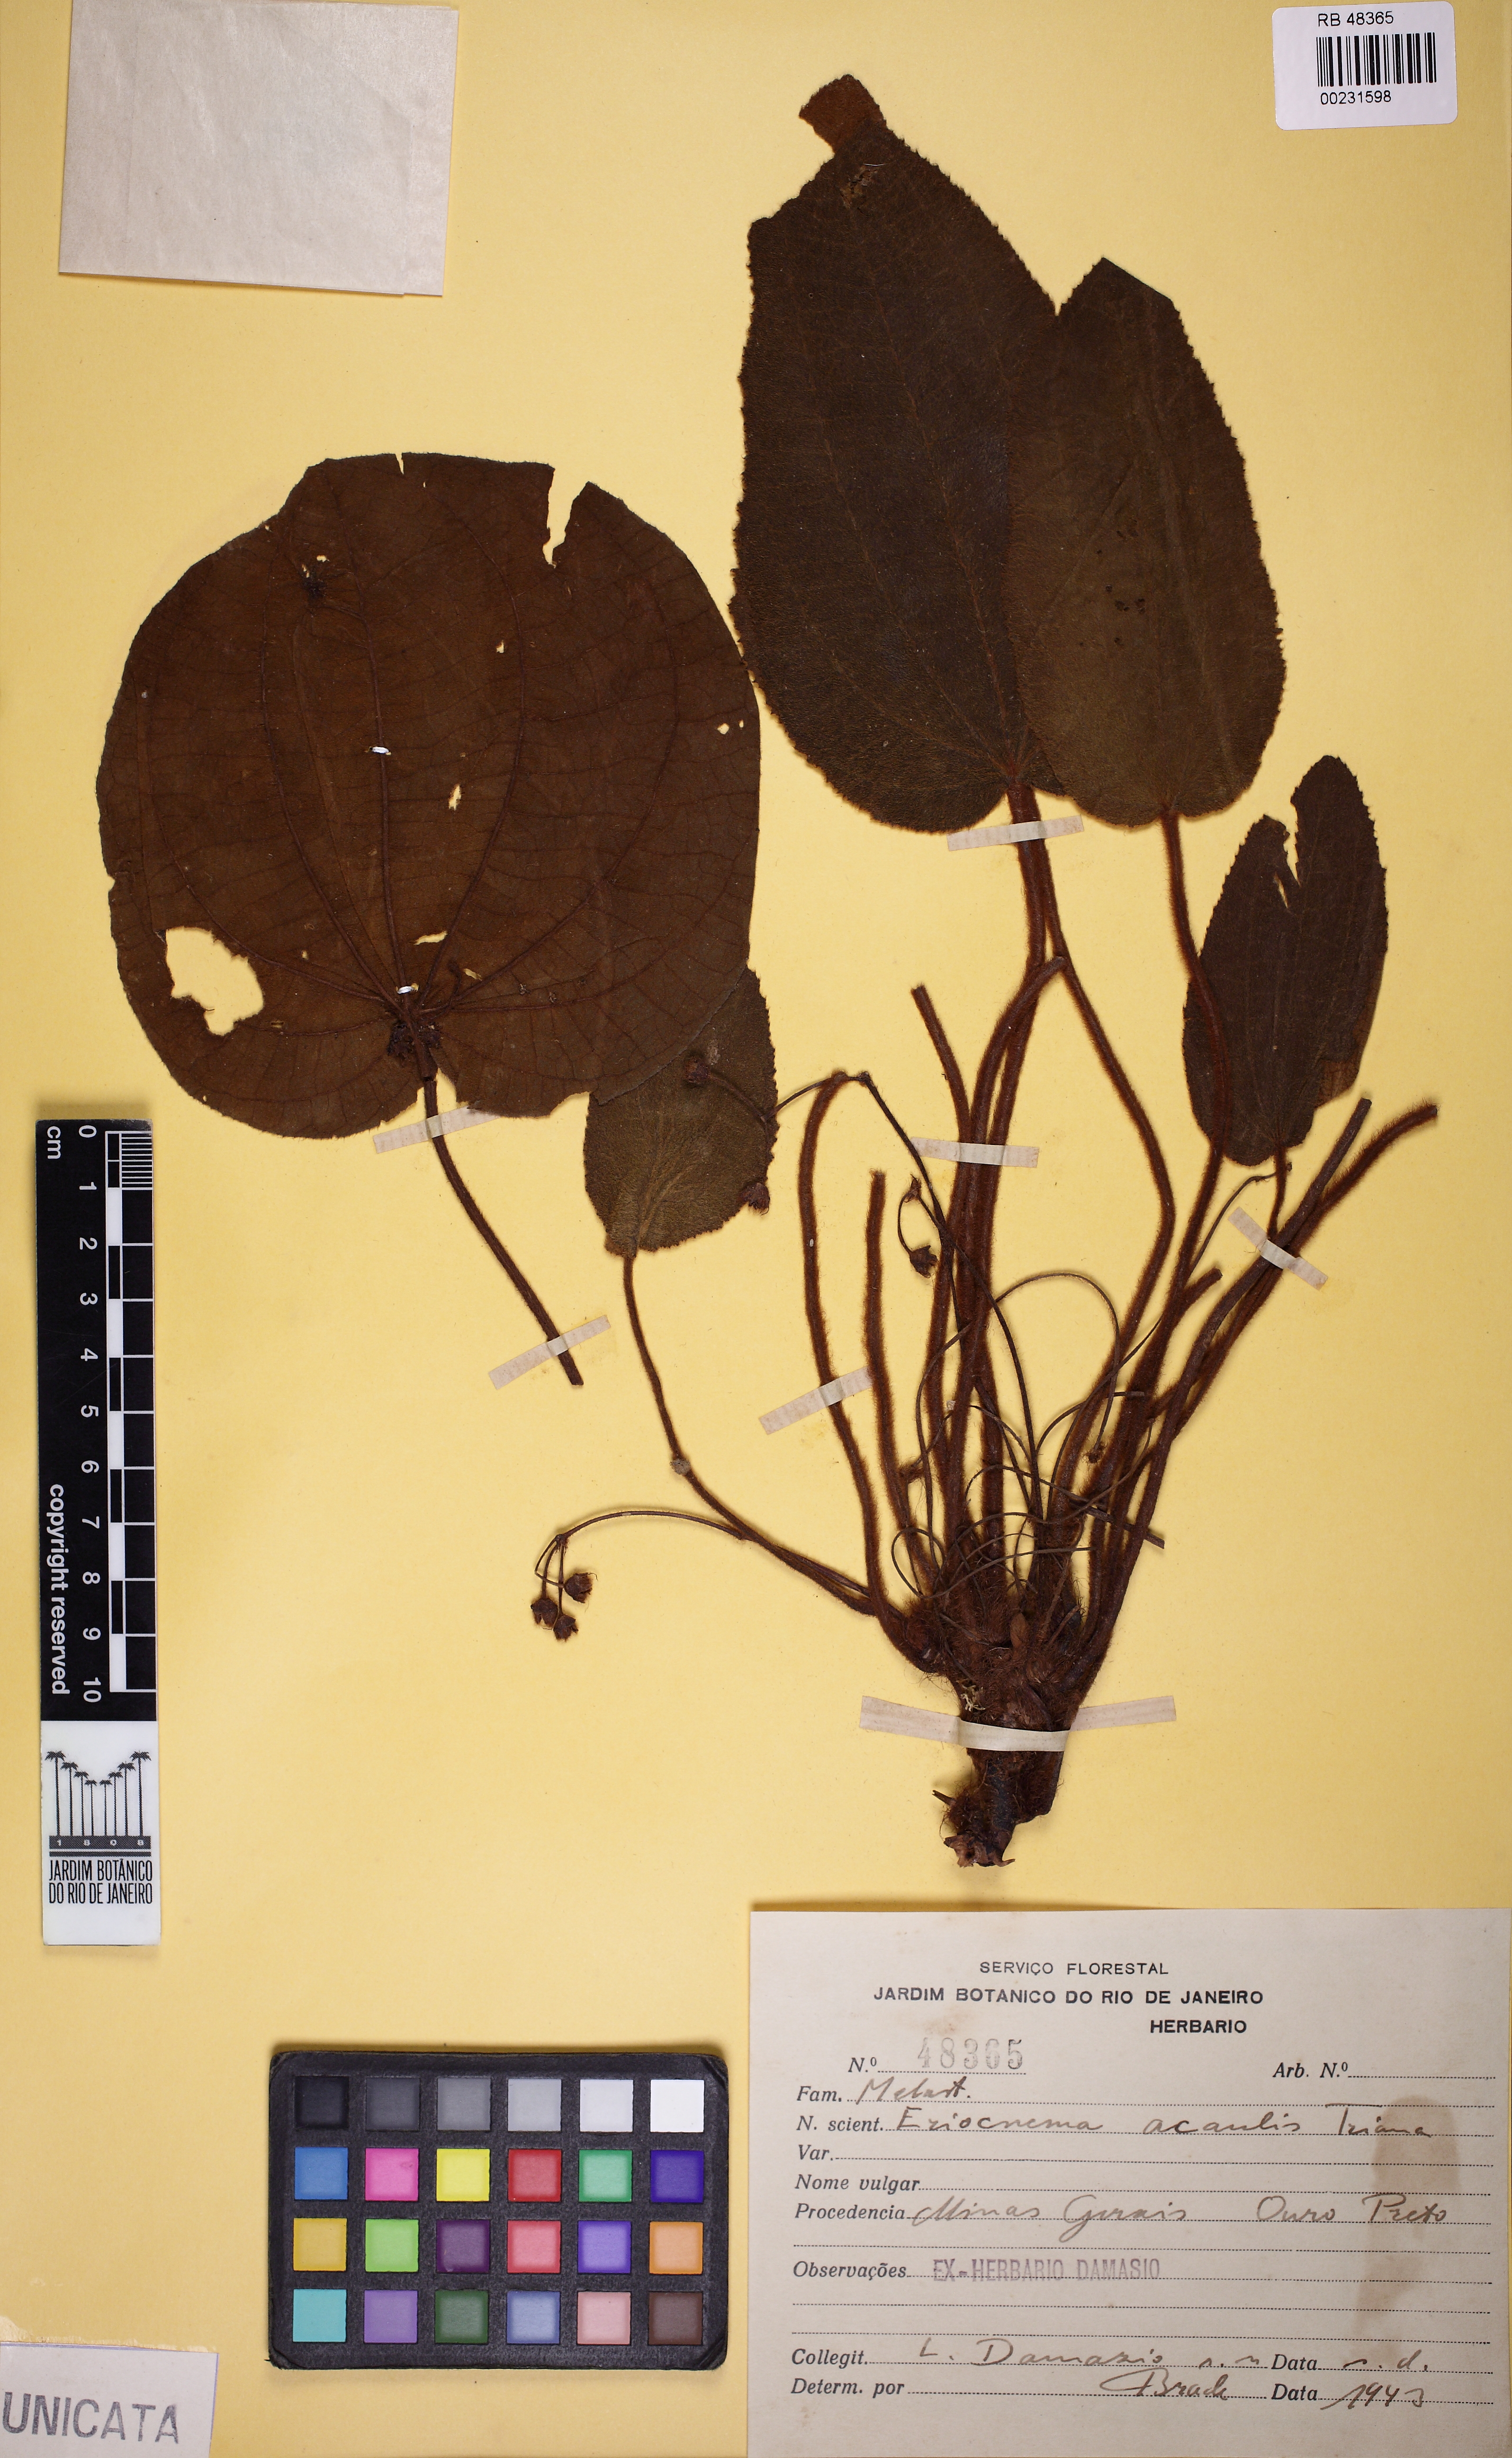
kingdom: Plantae
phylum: Tracheophyta
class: Magnoliopsida
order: Myrtales
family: Melastomataceae
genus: Eriocnema
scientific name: Eriocnema acaulis
